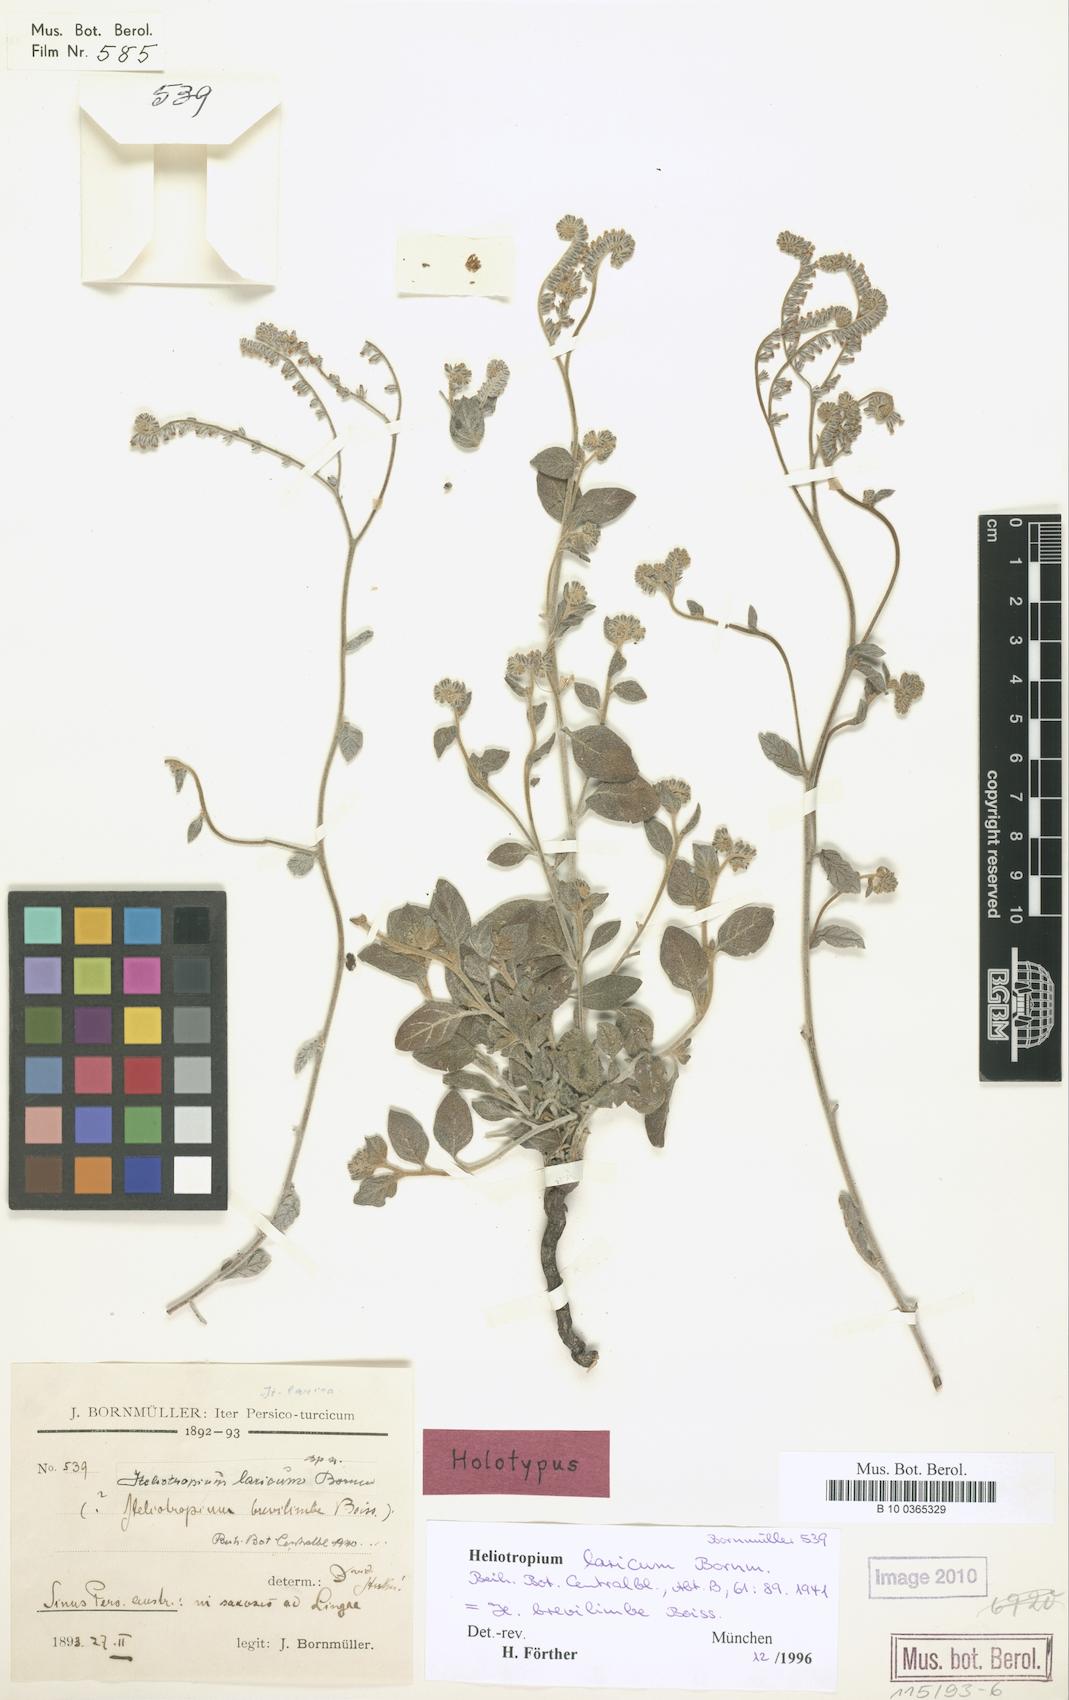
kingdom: Plantae
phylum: Tracheophyta
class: Magnoliopsida
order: Boraginales
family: Heliotropiaceae
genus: Heliotropium
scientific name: Heliotropium laricum
